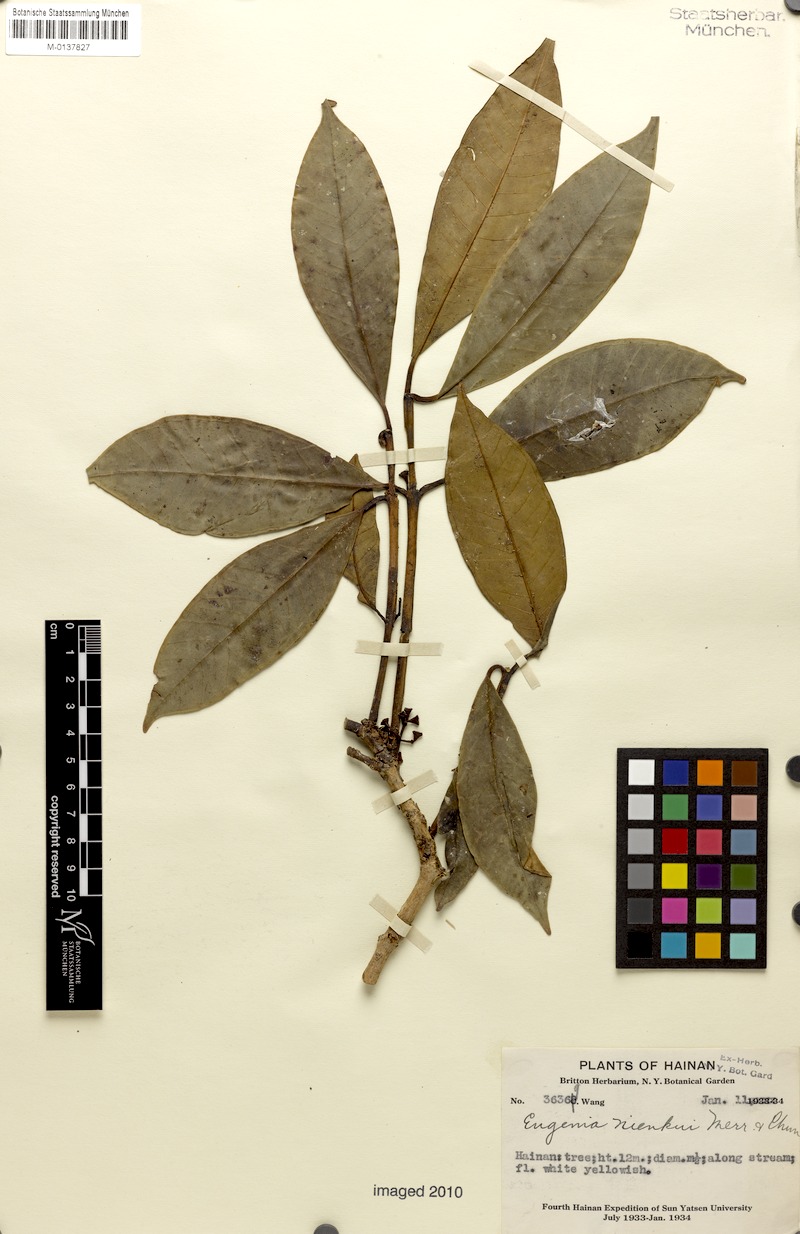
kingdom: Plantae
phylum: Tracheophyta
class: Magnoliopsida
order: Myrtales
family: Myrtaceae
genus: Syzygium
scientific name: Syzygium tetragonum
